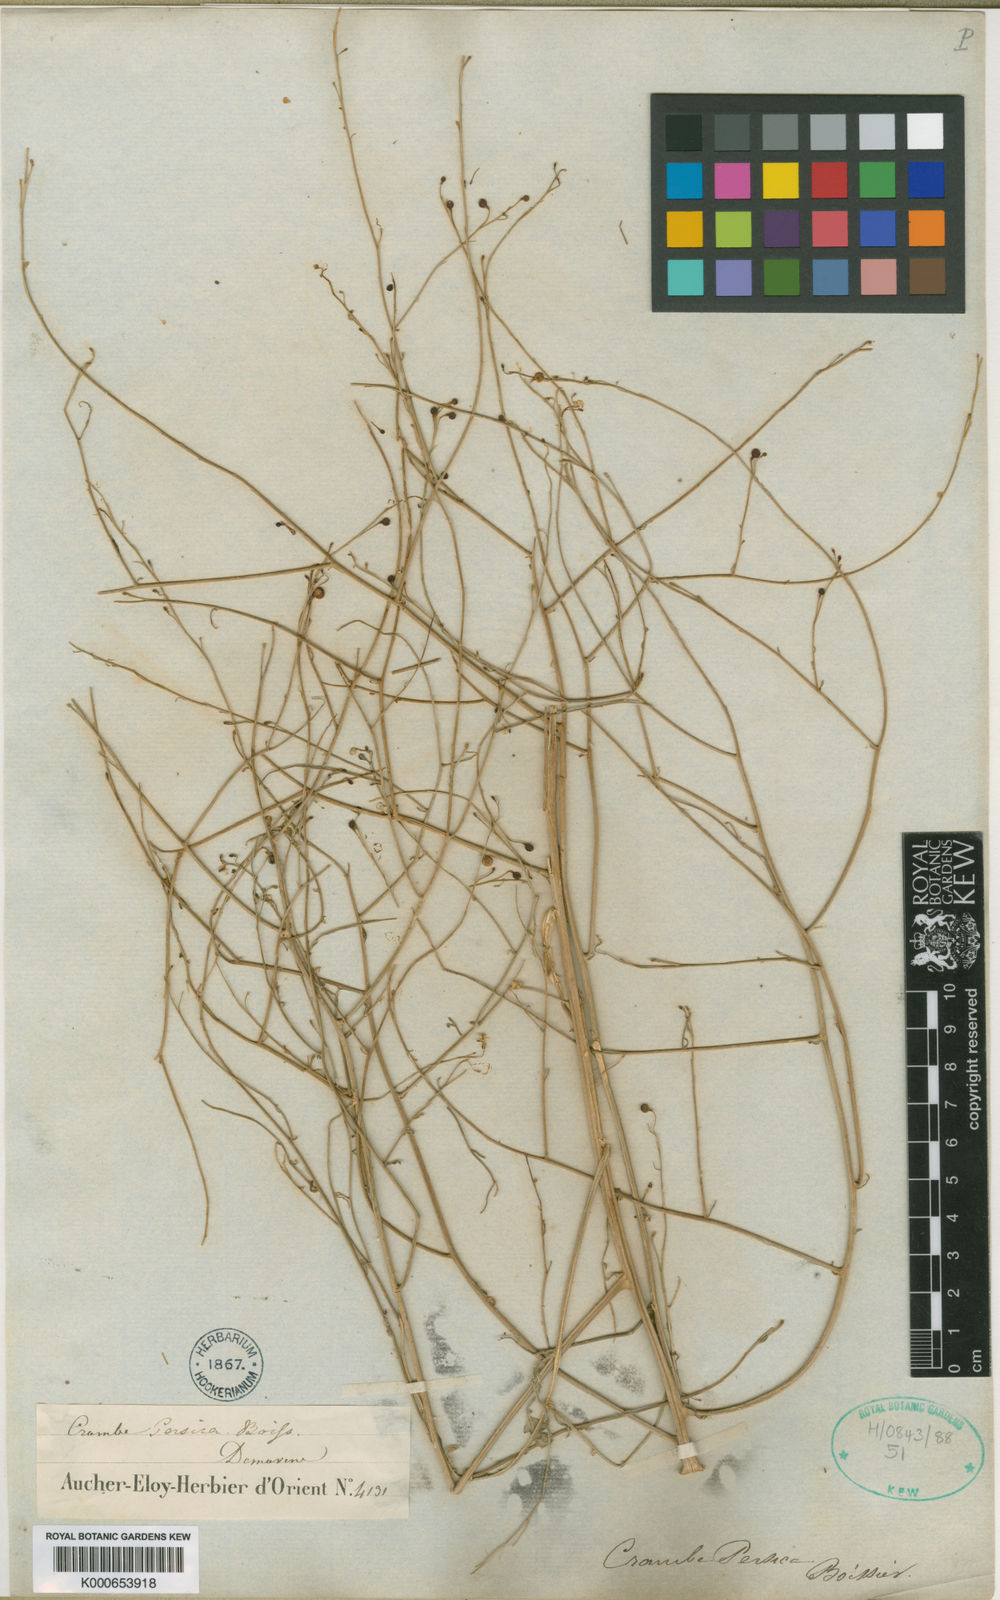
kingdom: Plantae
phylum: Tracheophyta
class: Magnoliopsida
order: Brassicales
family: Brassicaceae
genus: Crambe
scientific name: Crambe persica
